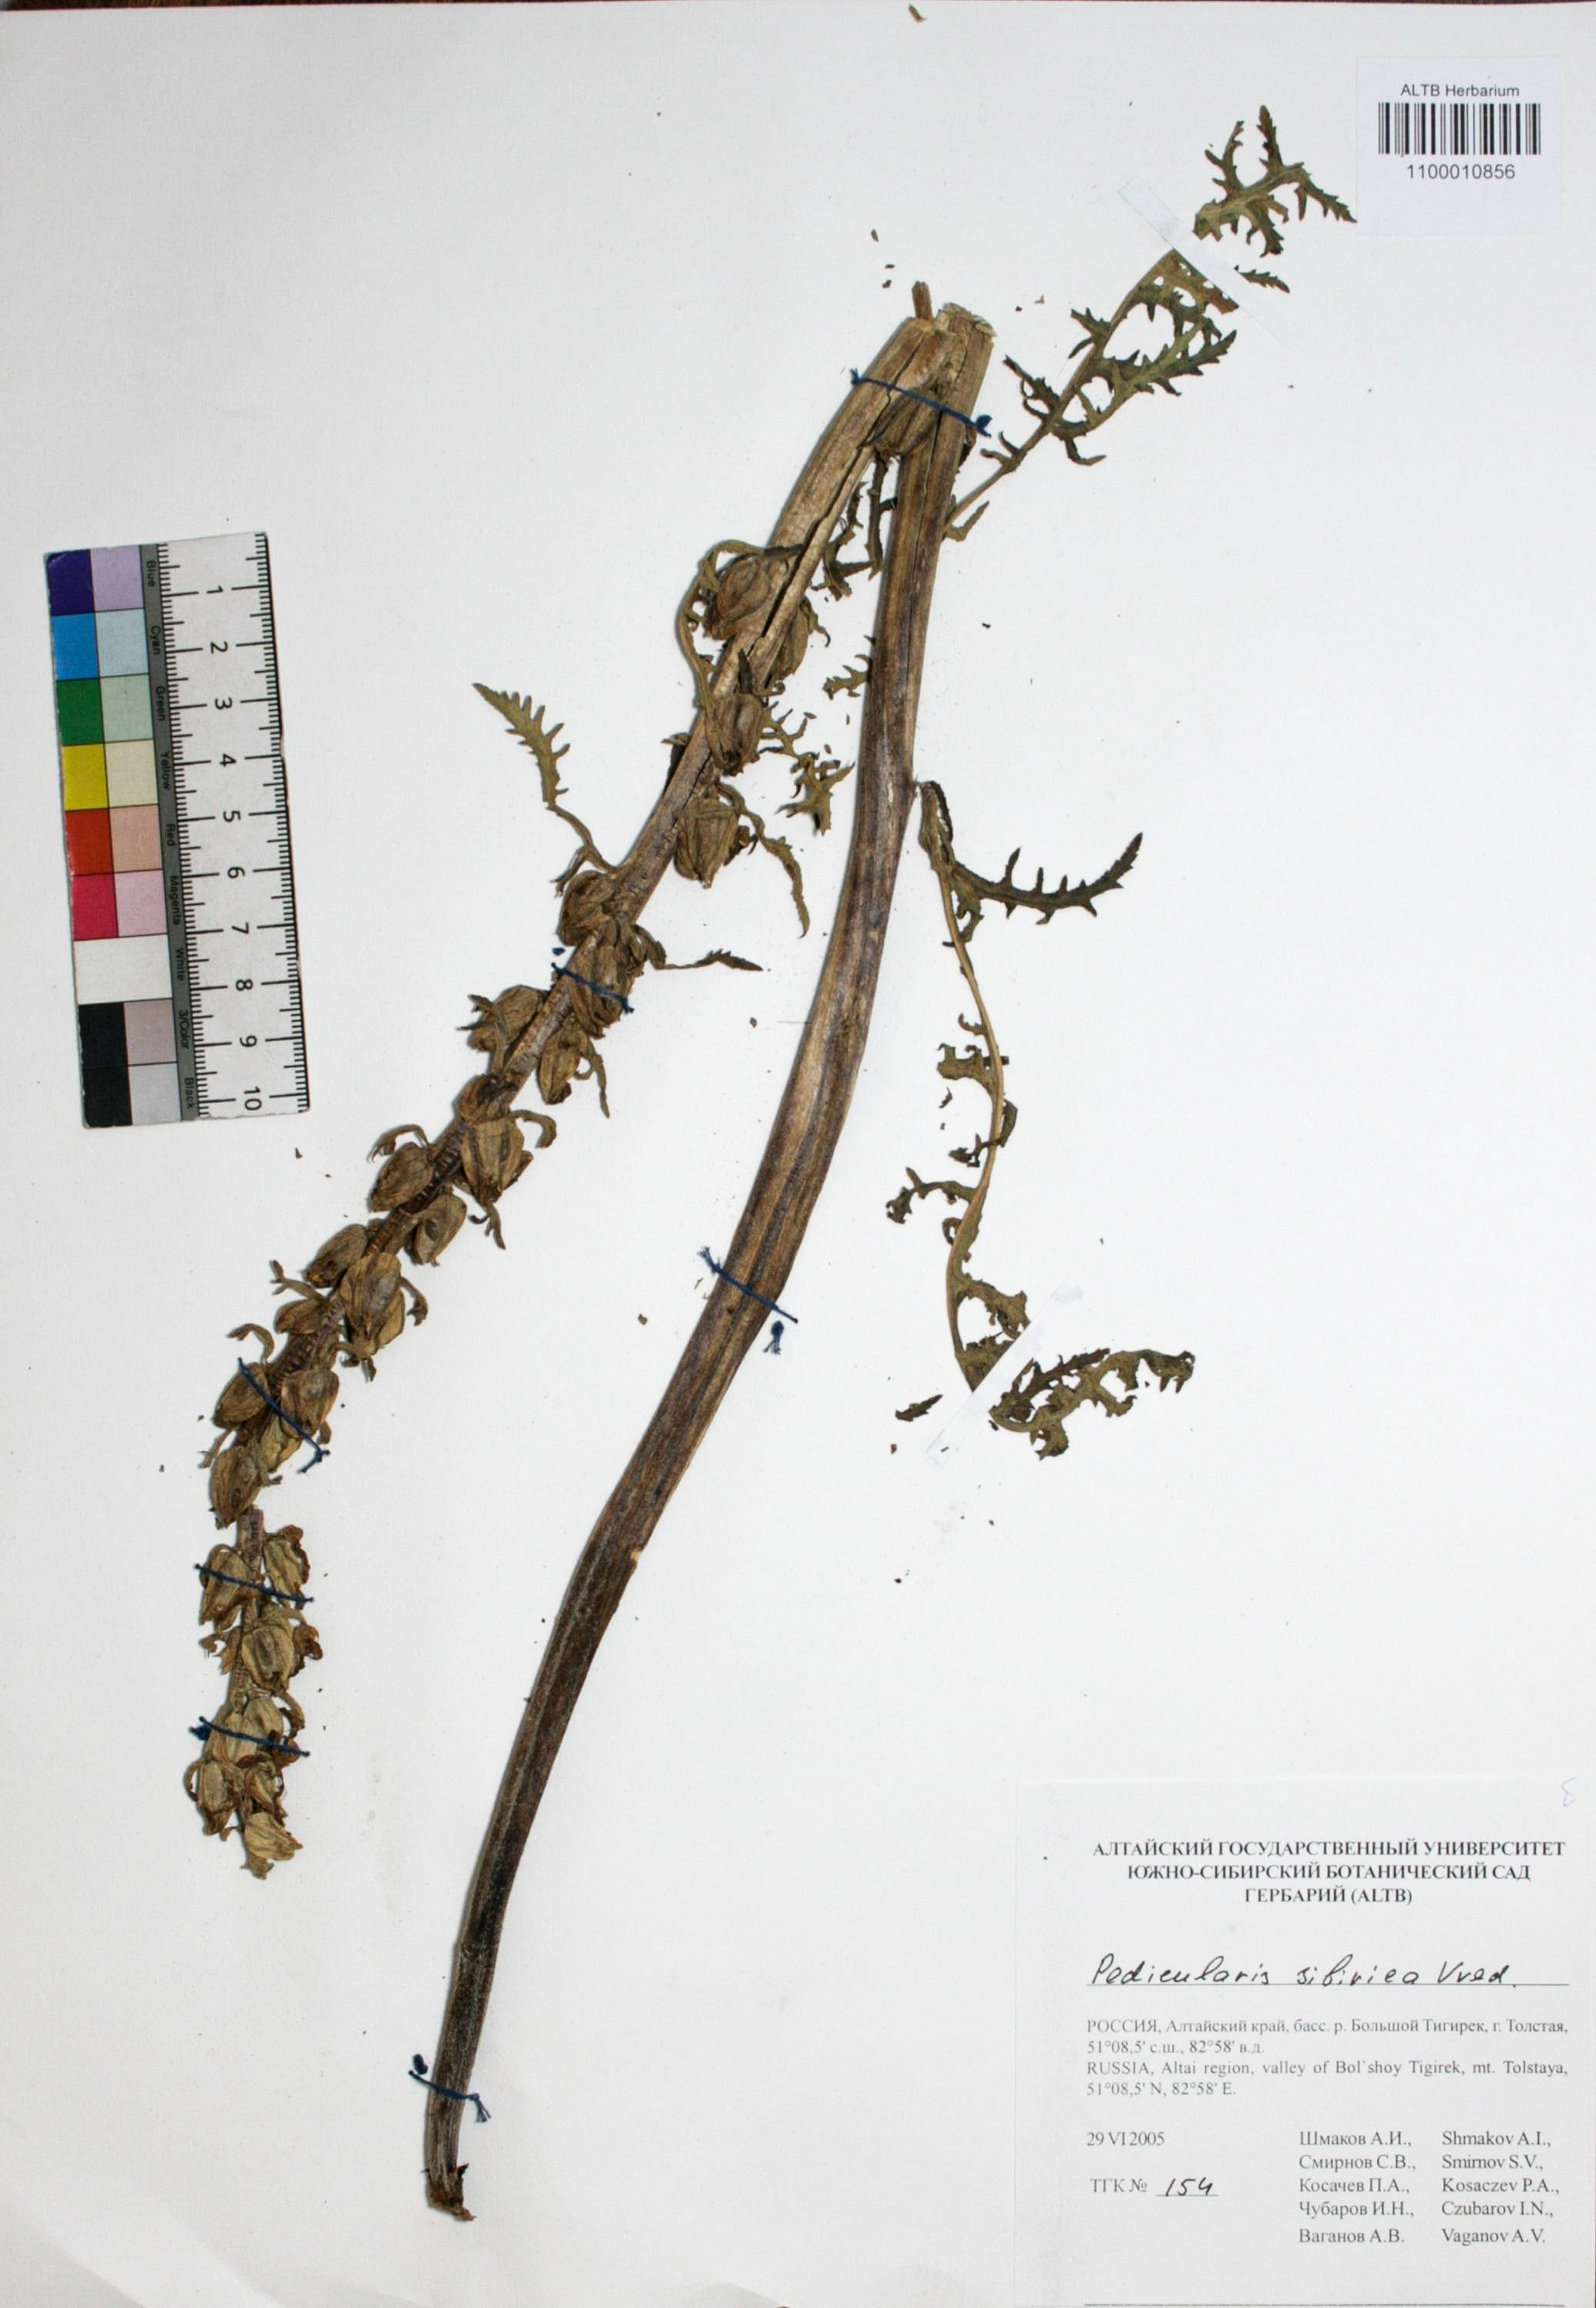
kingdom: Plantae
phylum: Tracheophyta
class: Magnoliopsida
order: Lamiales
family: Orobanchaceae
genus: Pedicularis
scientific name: Pedicularis sibirica
